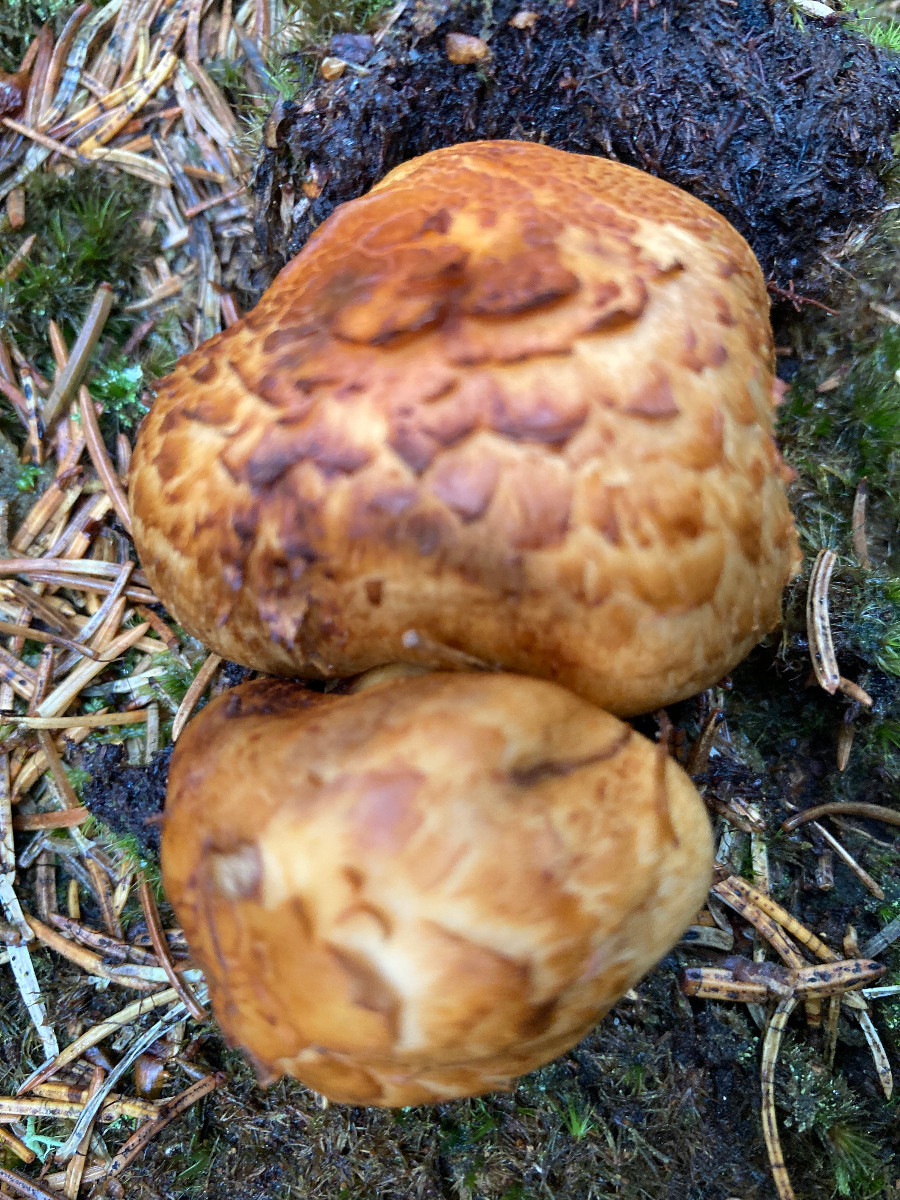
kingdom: Fungi
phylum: Basidiomycota
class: Agaricomycetes
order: Agaricales
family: Tricholomataceae
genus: Tricholoma
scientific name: Tricholoma focale
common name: halsbånd-ridderhat
